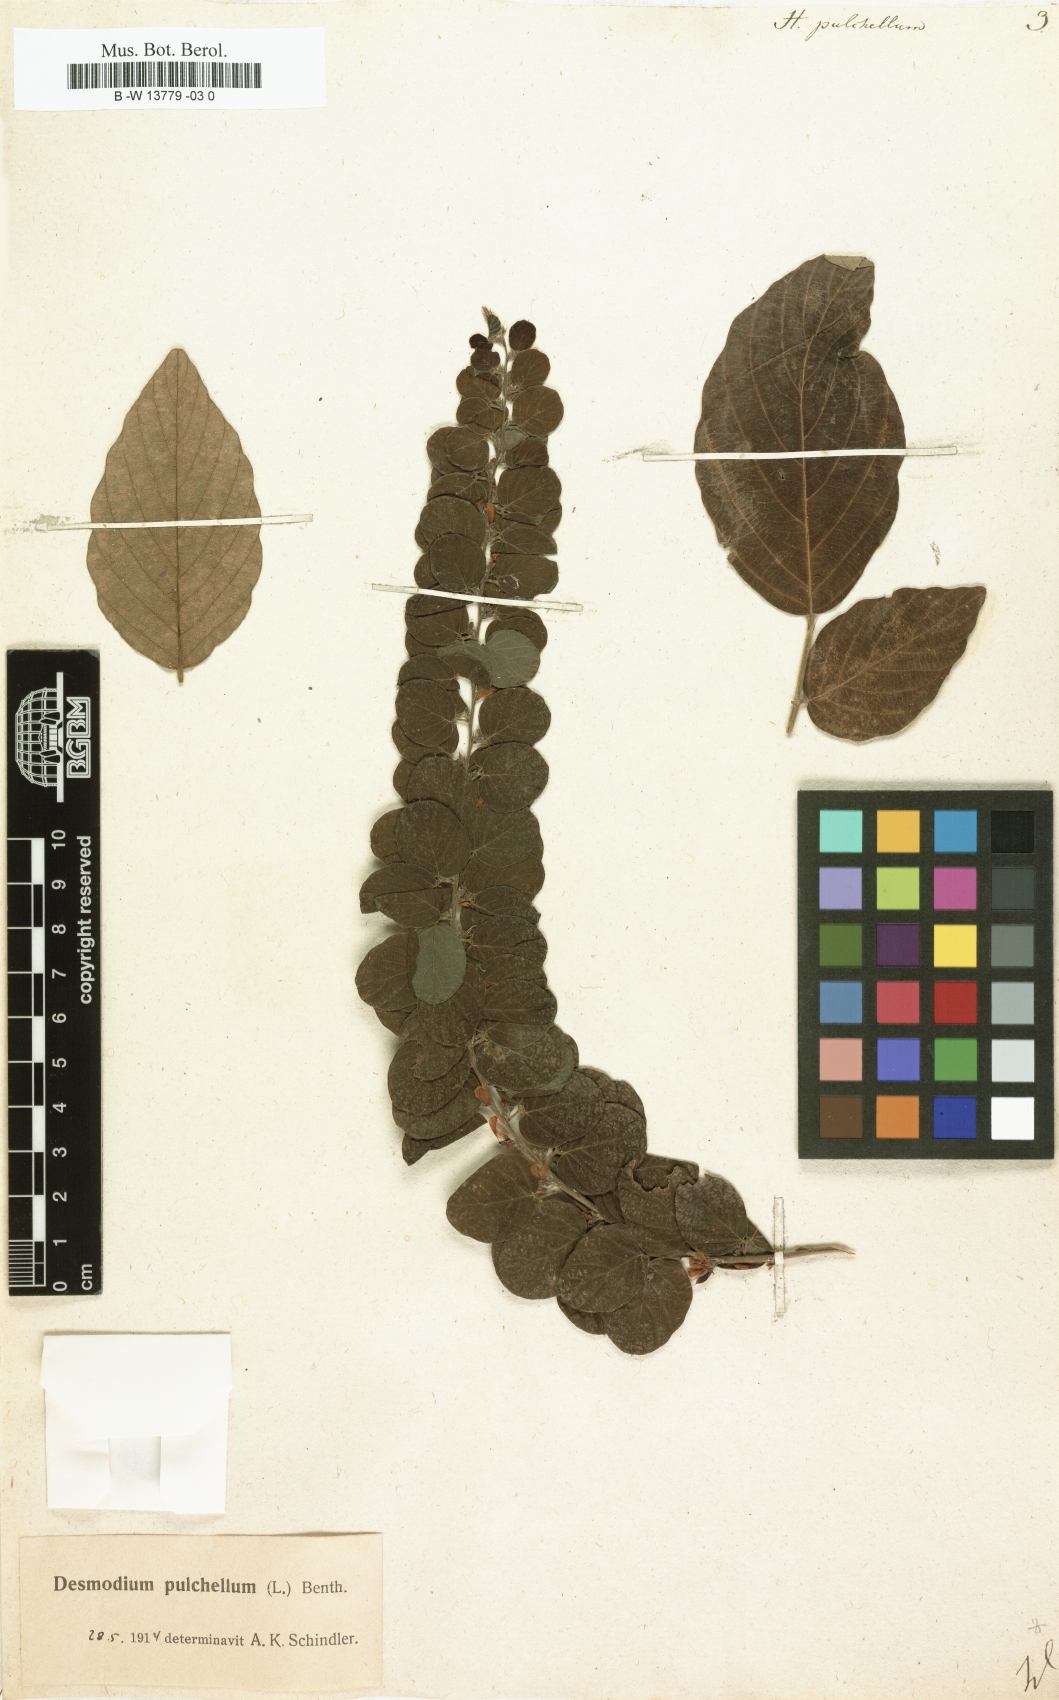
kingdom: Plantae
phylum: Tracheophyta
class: Magnoliopsida
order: Fabales
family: Fabaceae
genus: Phyllodium
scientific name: Phyllodium pulchellum
